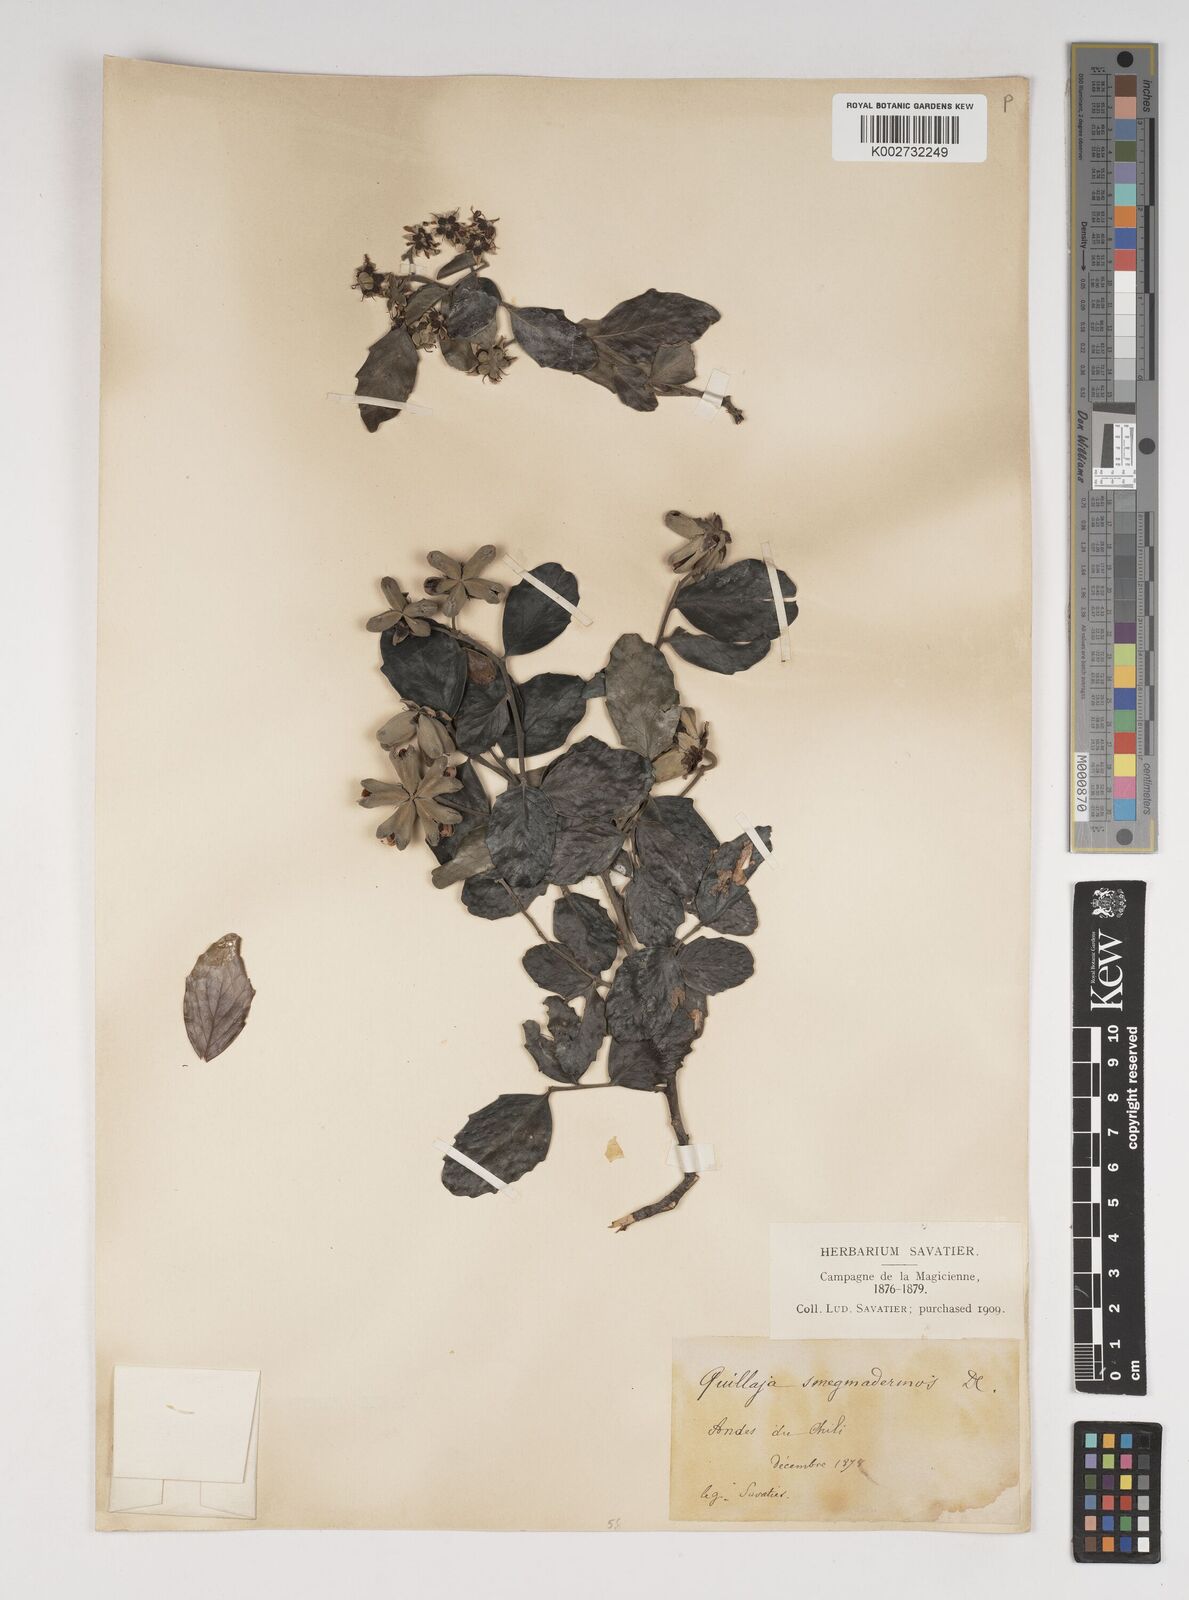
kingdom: Plantae
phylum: Tracheophyta
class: Magnoliopsida
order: Fabales
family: Quillajaceae
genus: Quillaja
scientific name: Quillaja saponaria
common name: Murillo's-bark
